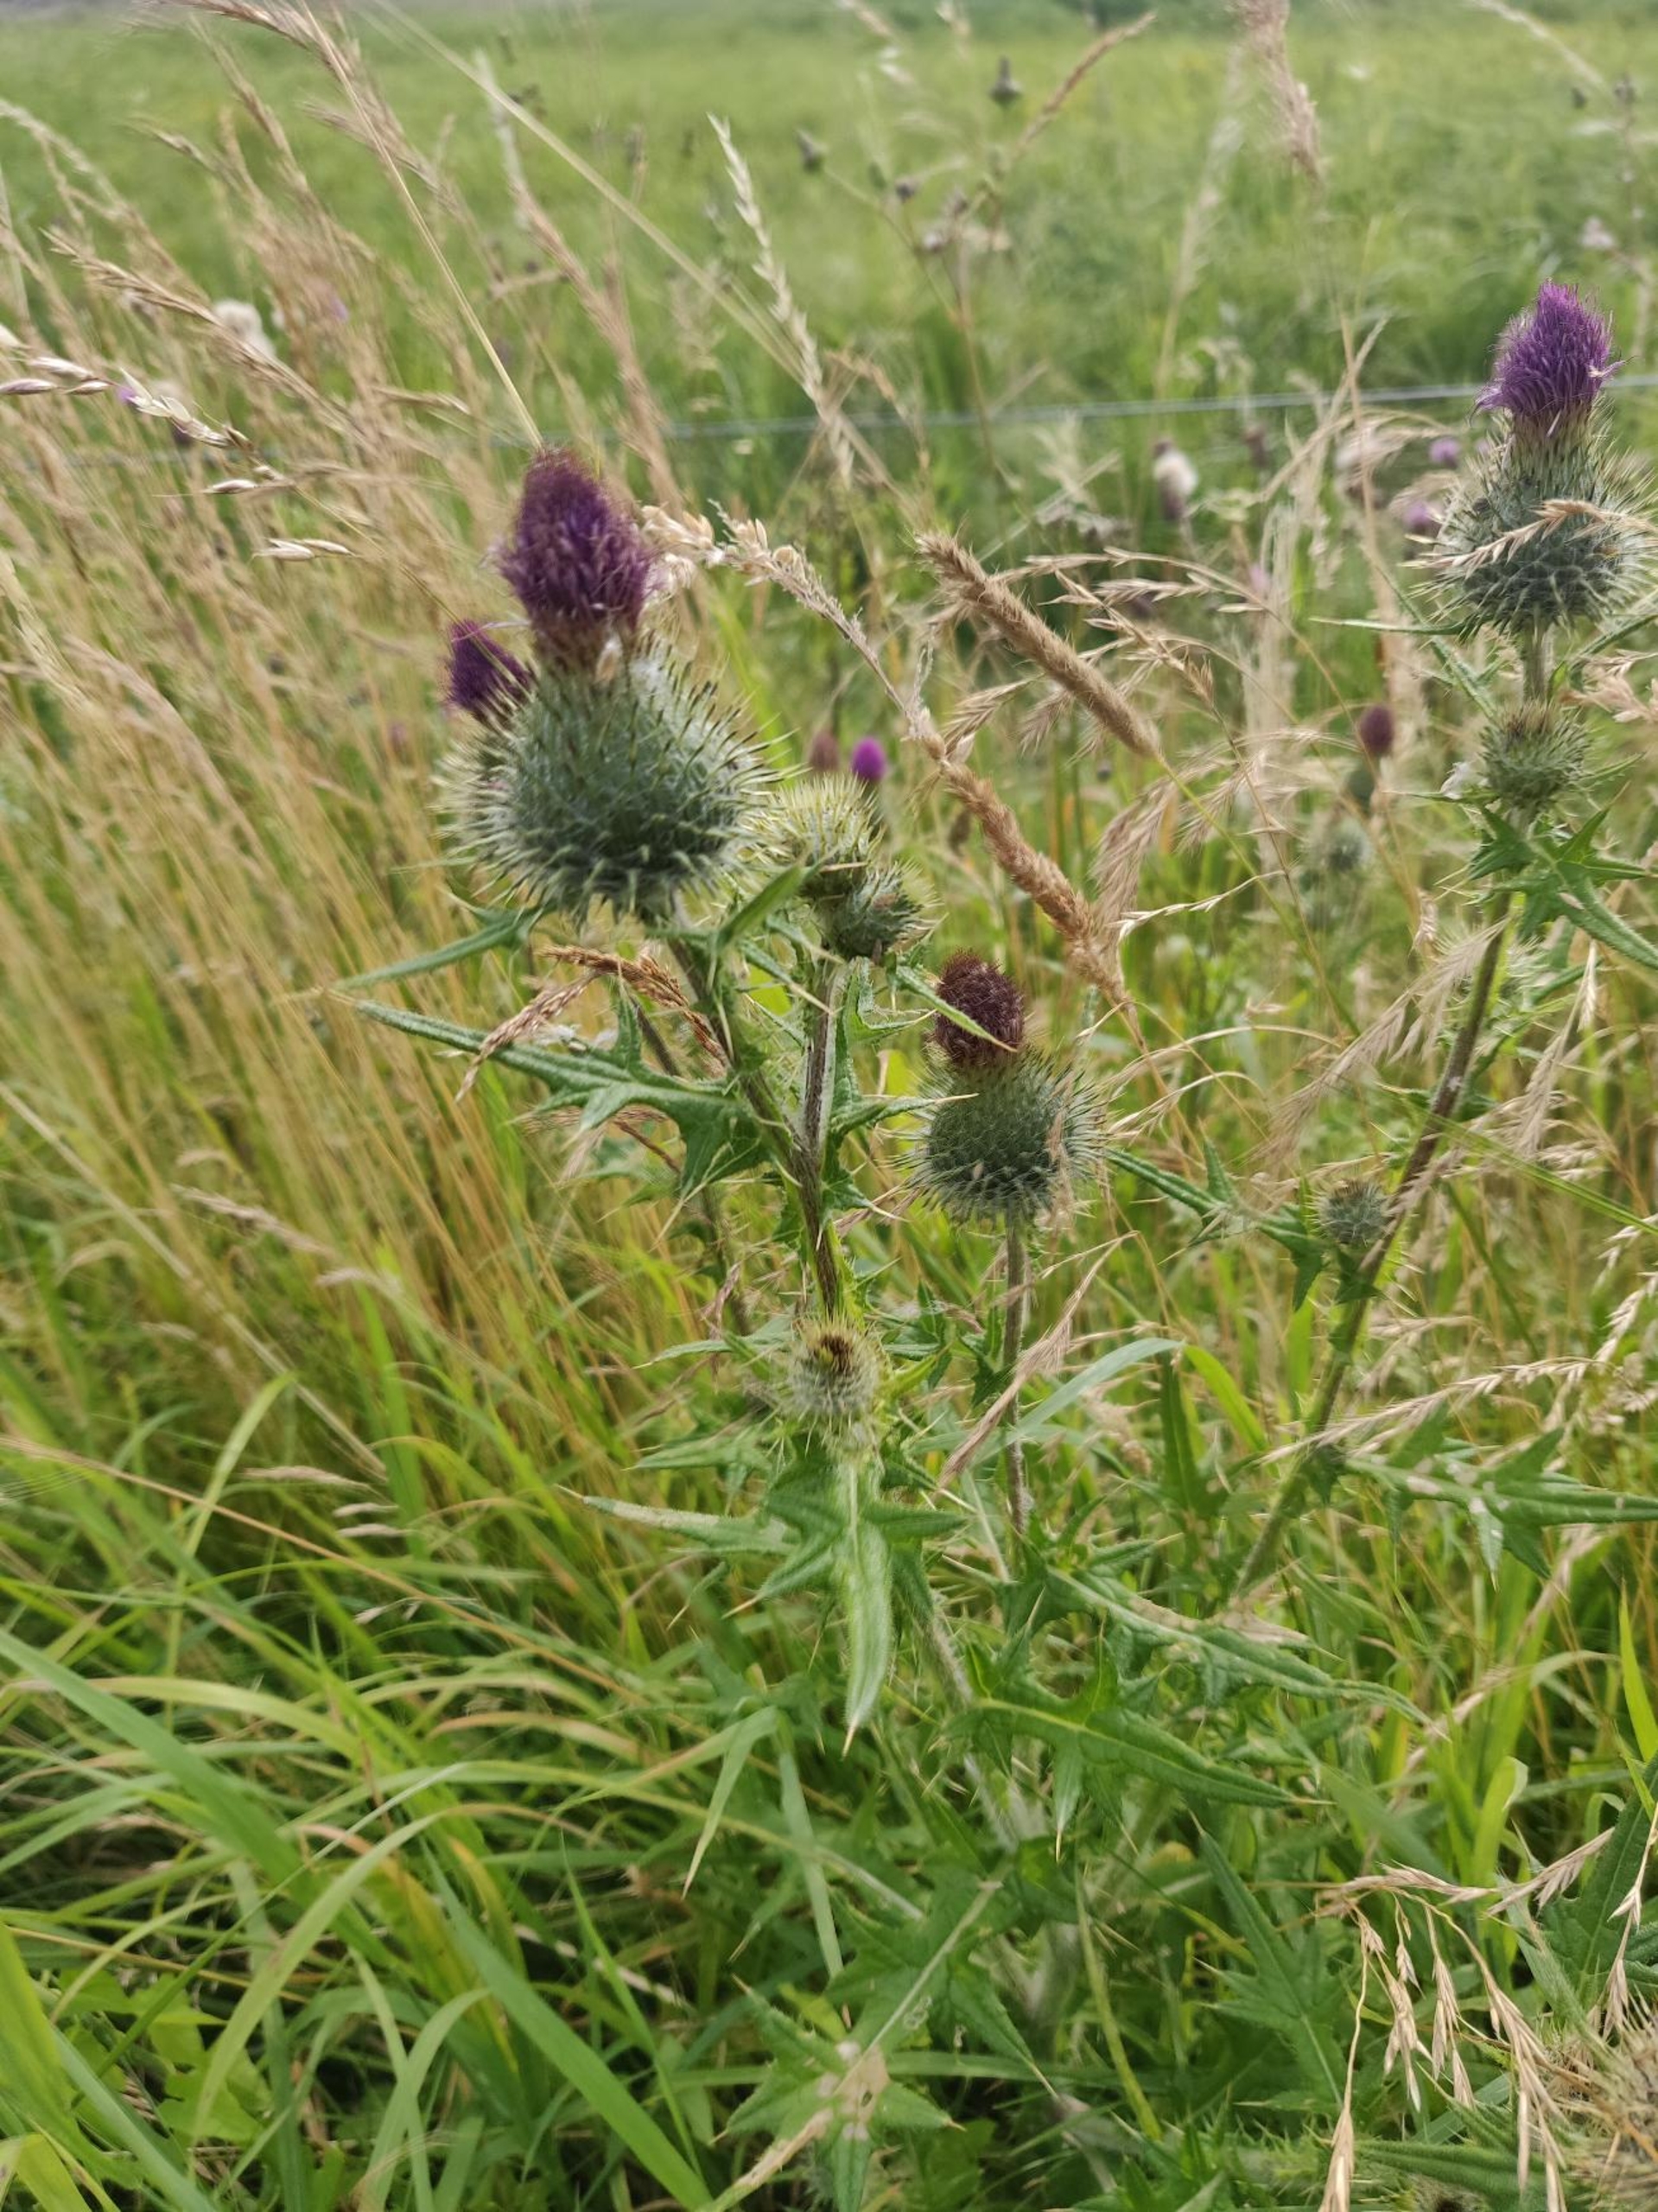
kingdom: Plantae
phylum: Tracheophyta
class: Magnoliopsida
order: Asterales
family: Asteraceae
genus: Cirsium
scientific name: Cirsium vulgare
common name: Horse-tidsel
